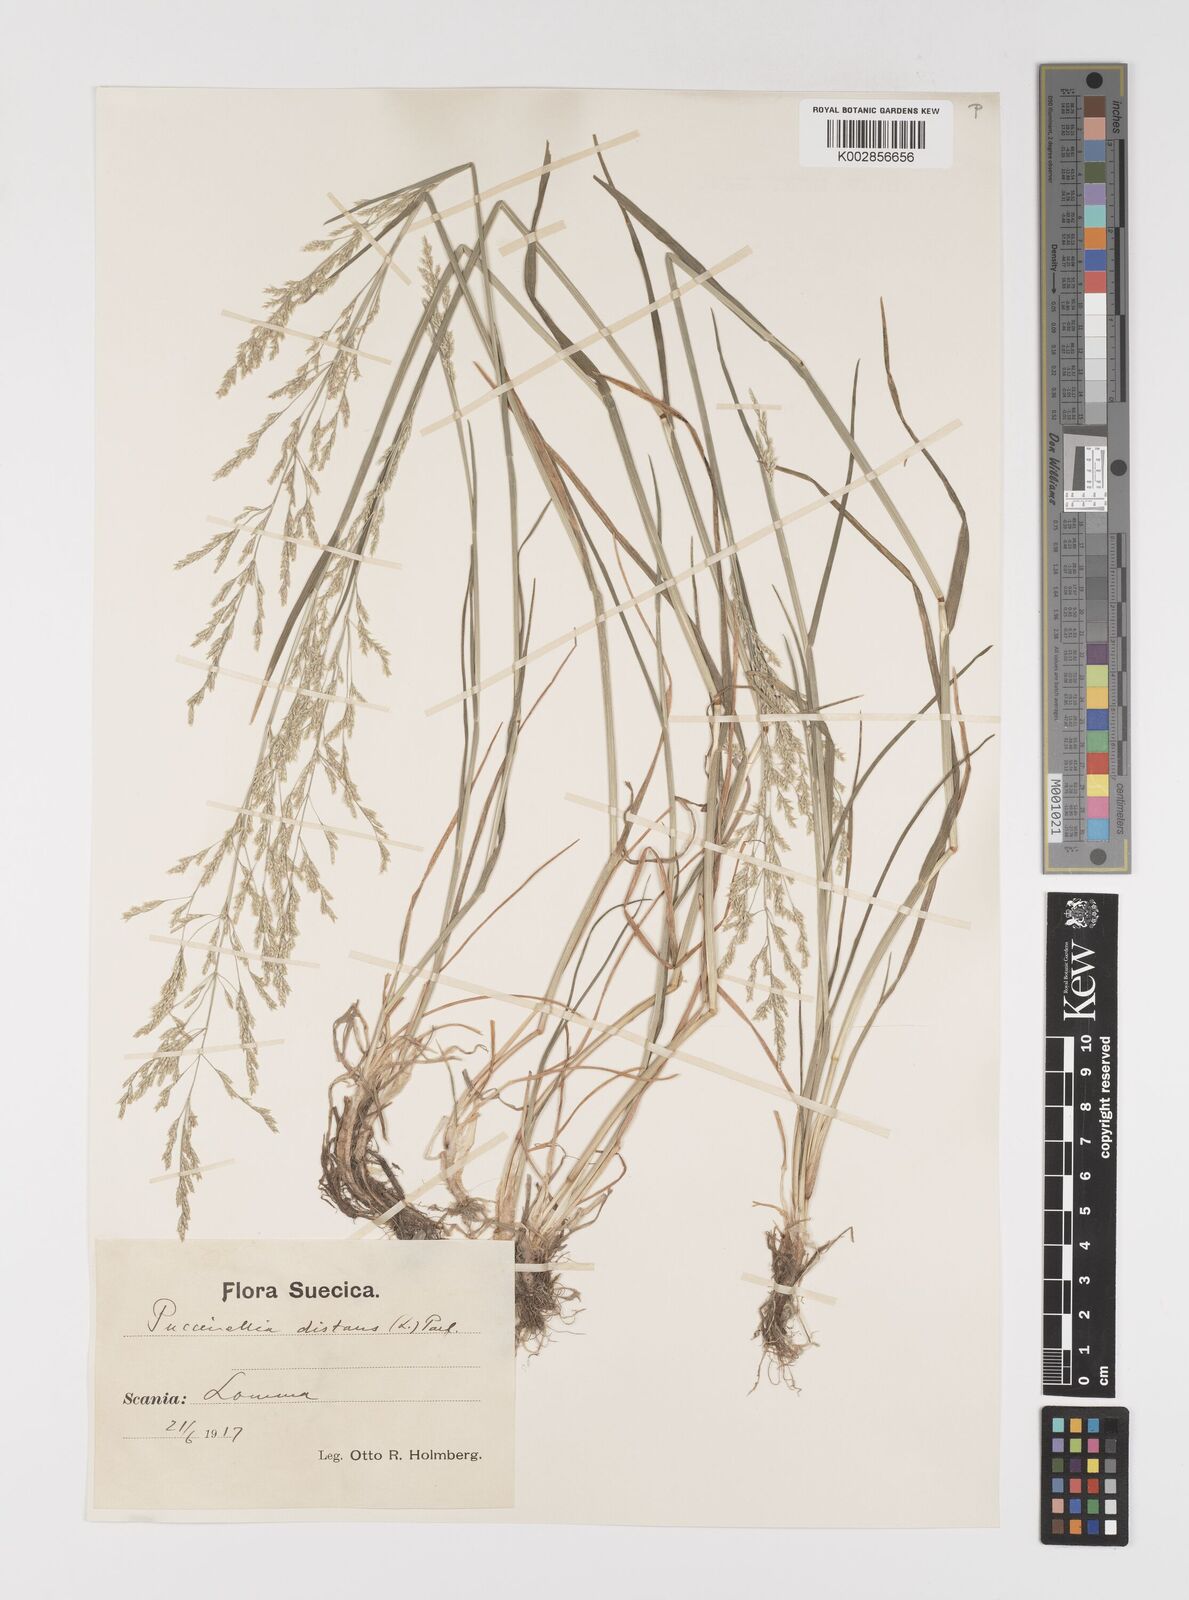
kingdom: Plantae
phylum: Tracheophyta
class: Liliopsida
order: Poales
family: Poaceae
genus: Puccinellia
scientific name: Puccinellia
